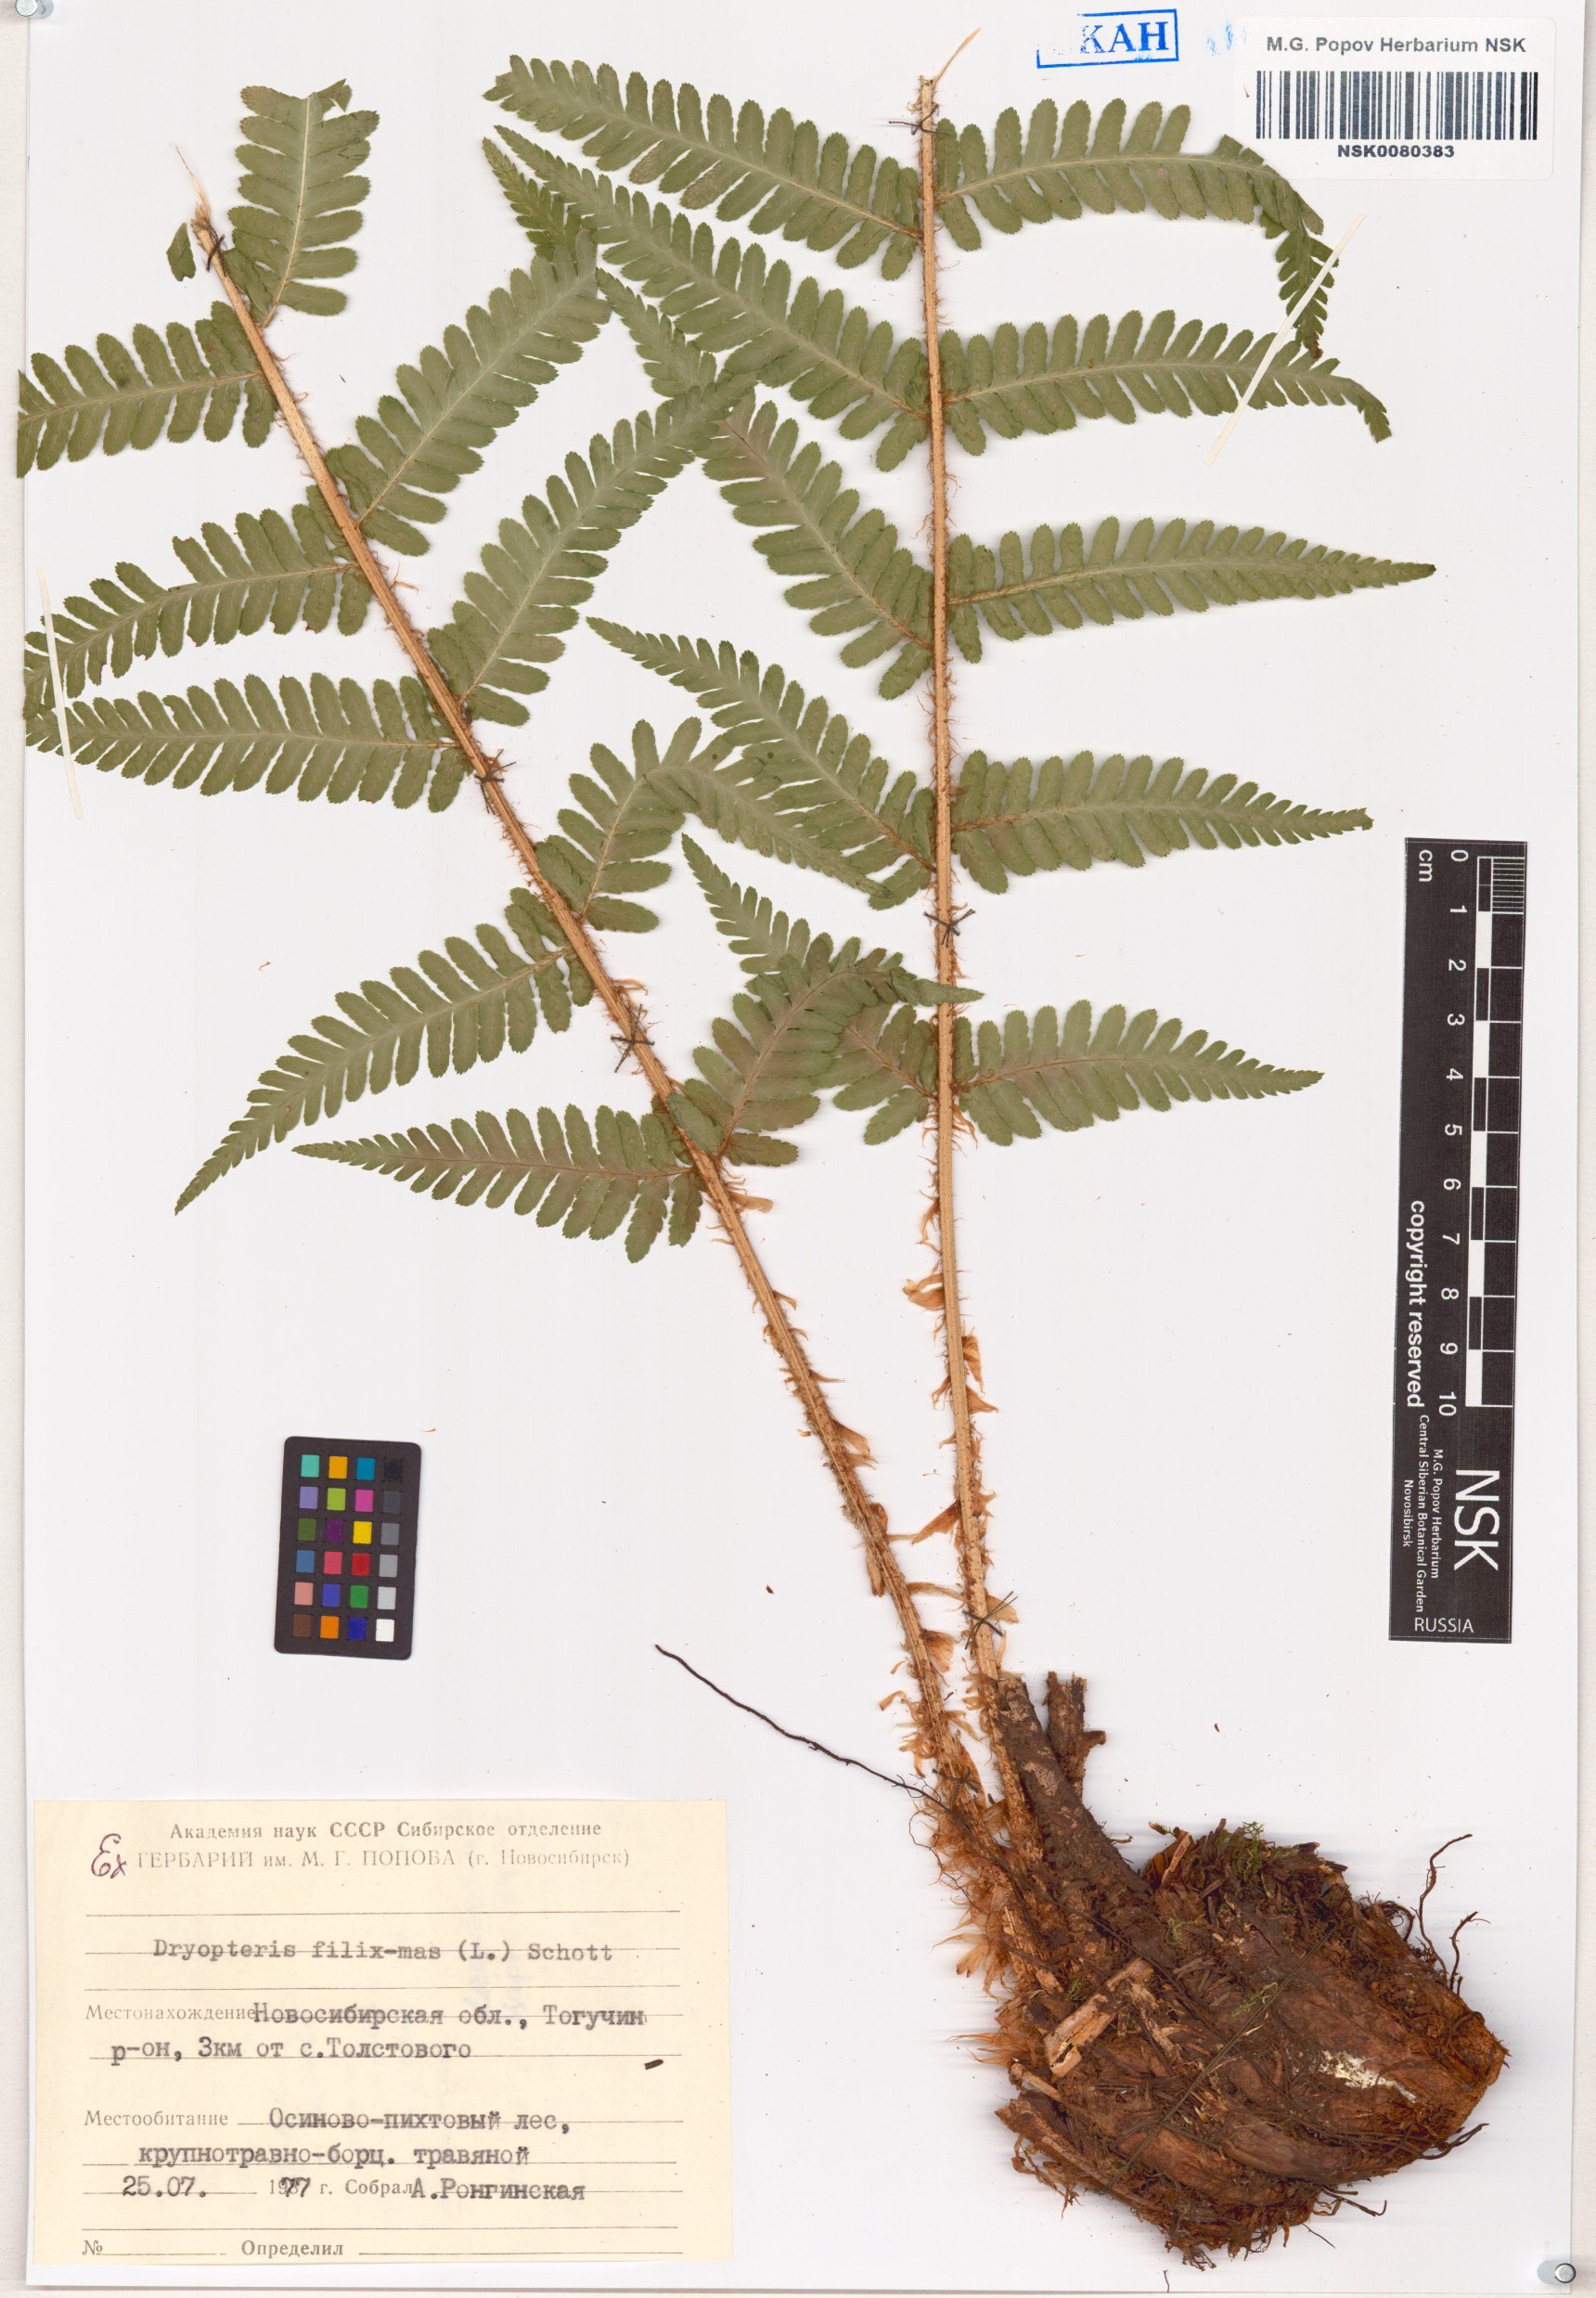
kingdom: Plantae
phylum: Tracheophyta
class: Polypodiopsida
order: Polypodiales
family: Dryopteridaceae
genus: Dryopteris
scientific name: Dryopteris filix-mas
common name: Male fern
